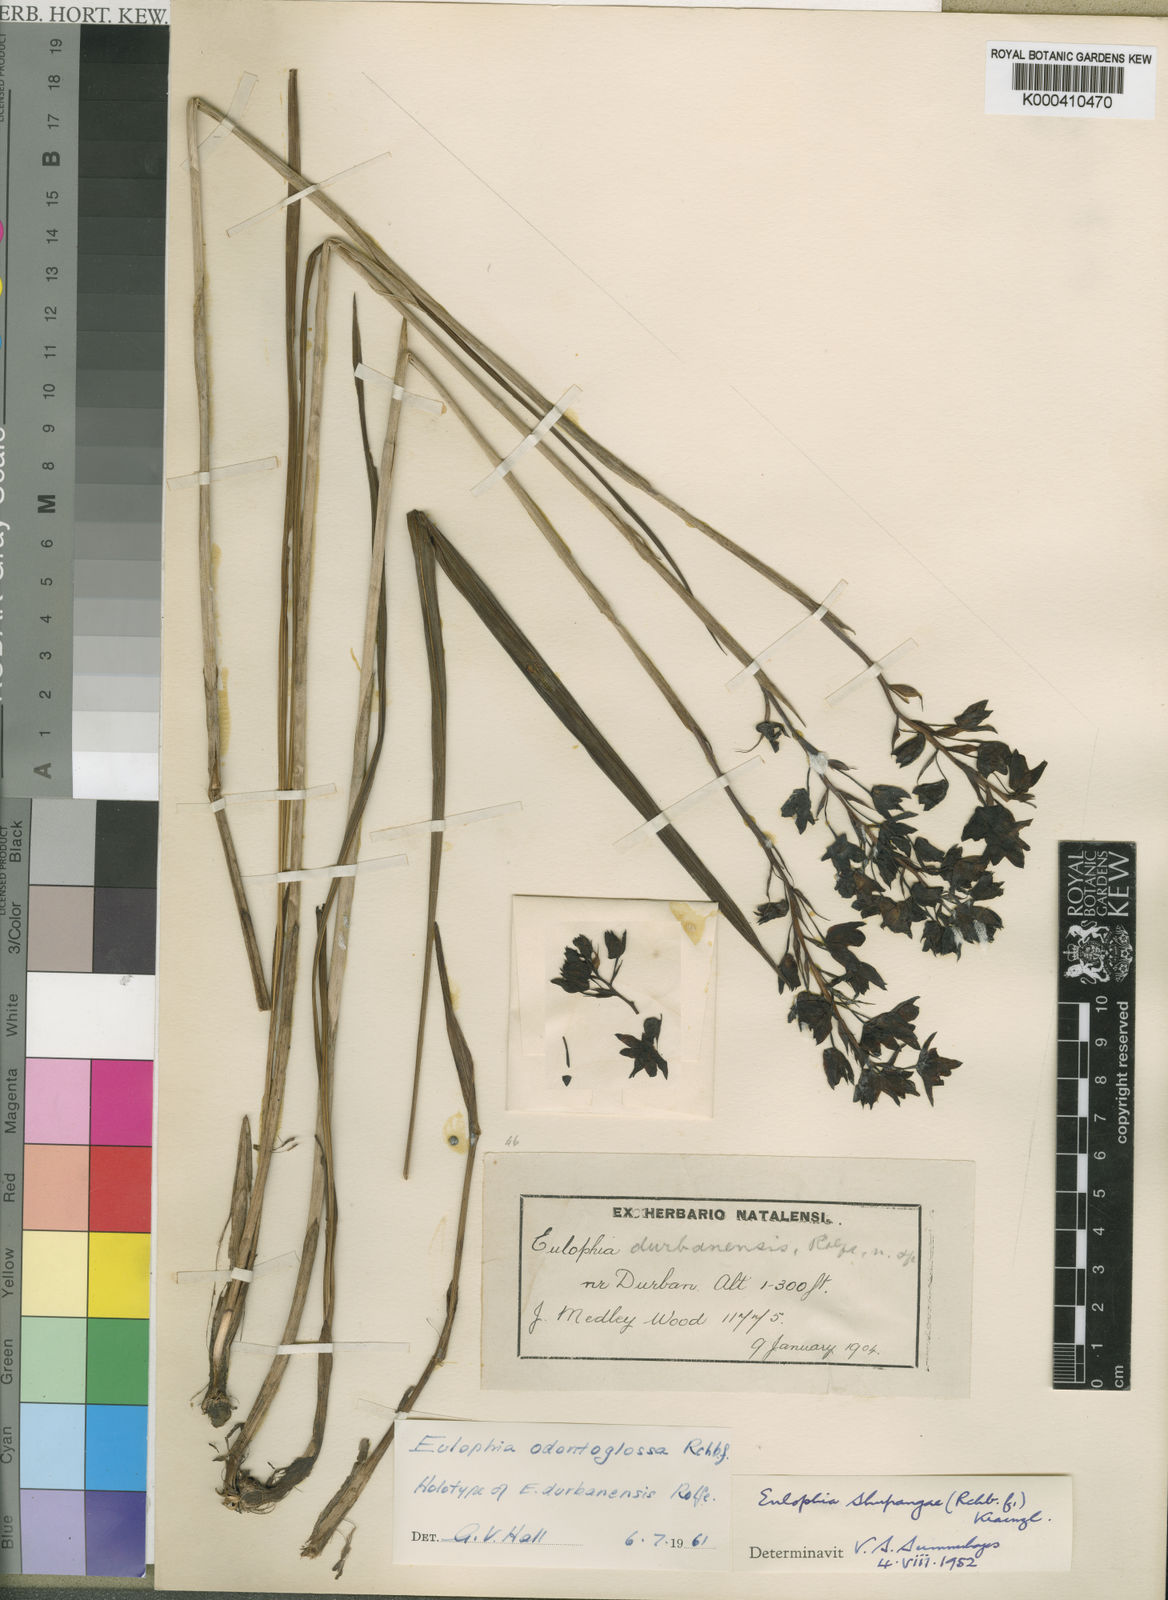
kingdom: Plantae
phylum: Tracheophyta
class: Liliopsida
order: Asparagales
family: Orchidaceae
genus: Eulophia
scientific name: Eulophia odontoglossa
